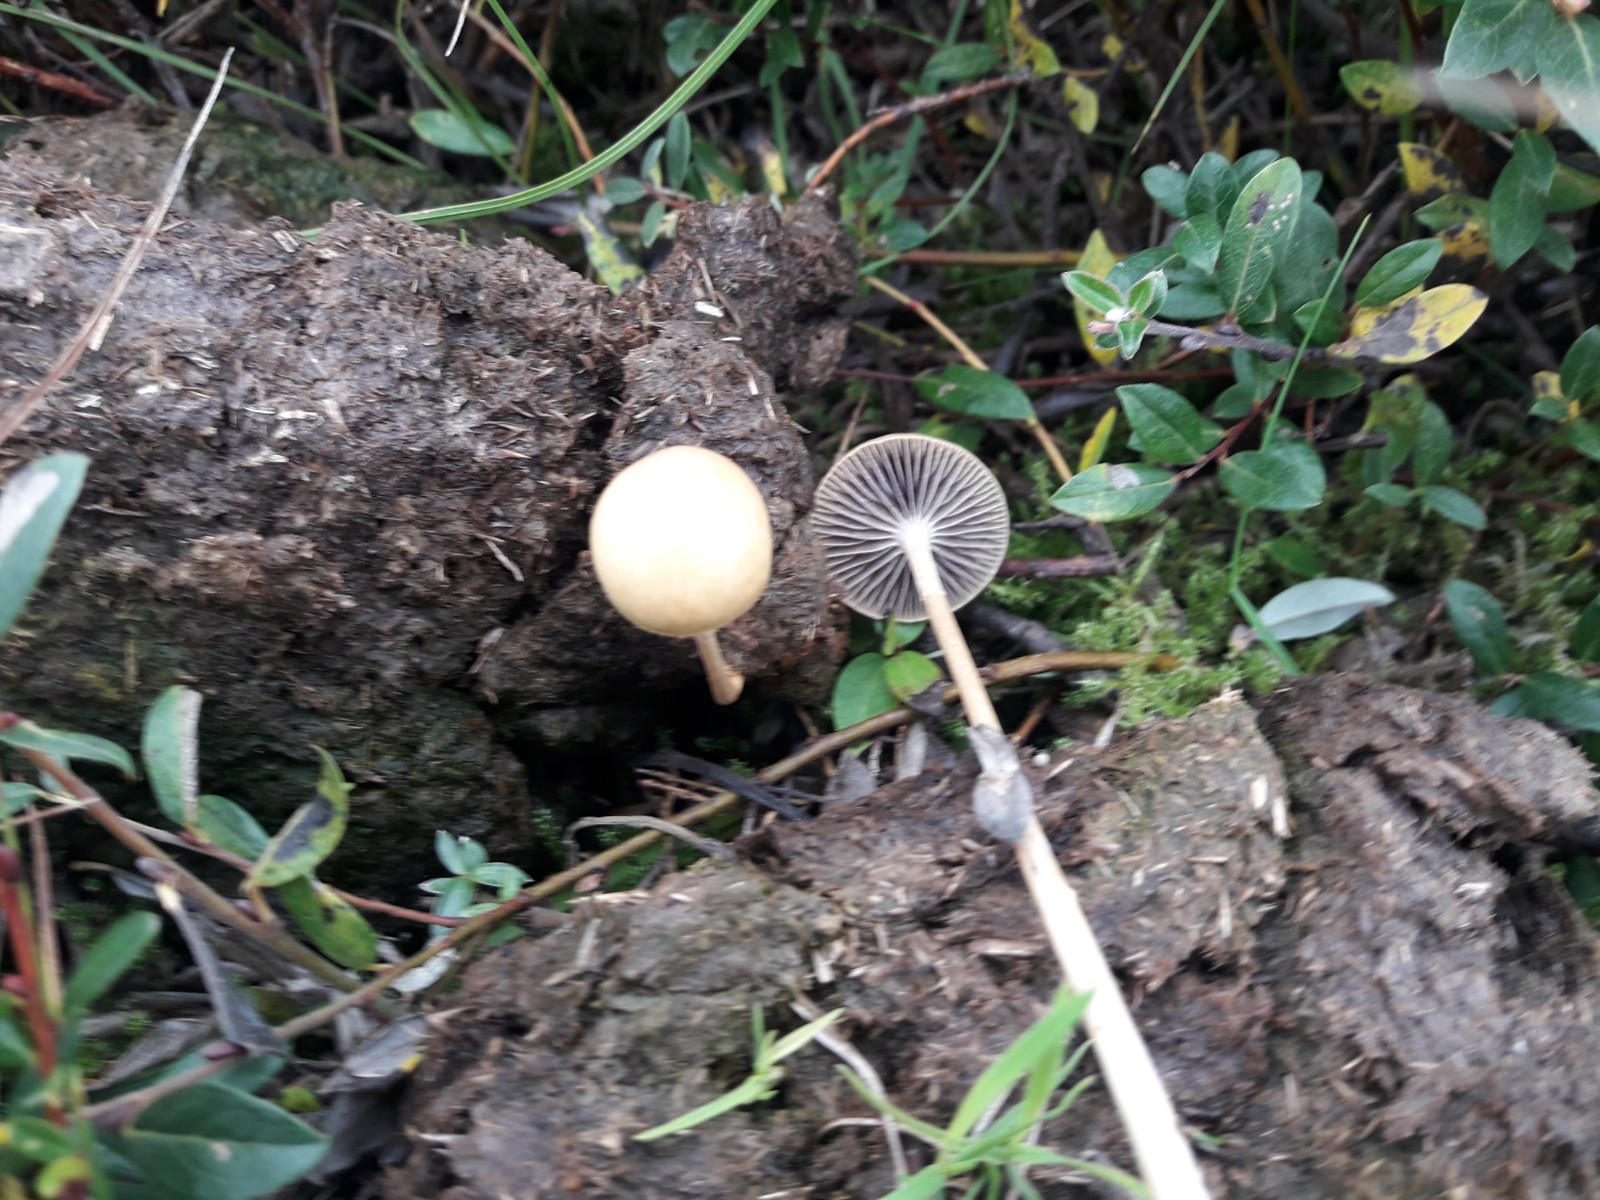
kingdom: Fungi
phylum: Basidiomycota
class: Agaricomycetes
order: Agaricales
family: Strophariaceae
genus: Protostropharia
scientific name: Protostropharia semiglobata
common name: halvkugleformet bredblad
